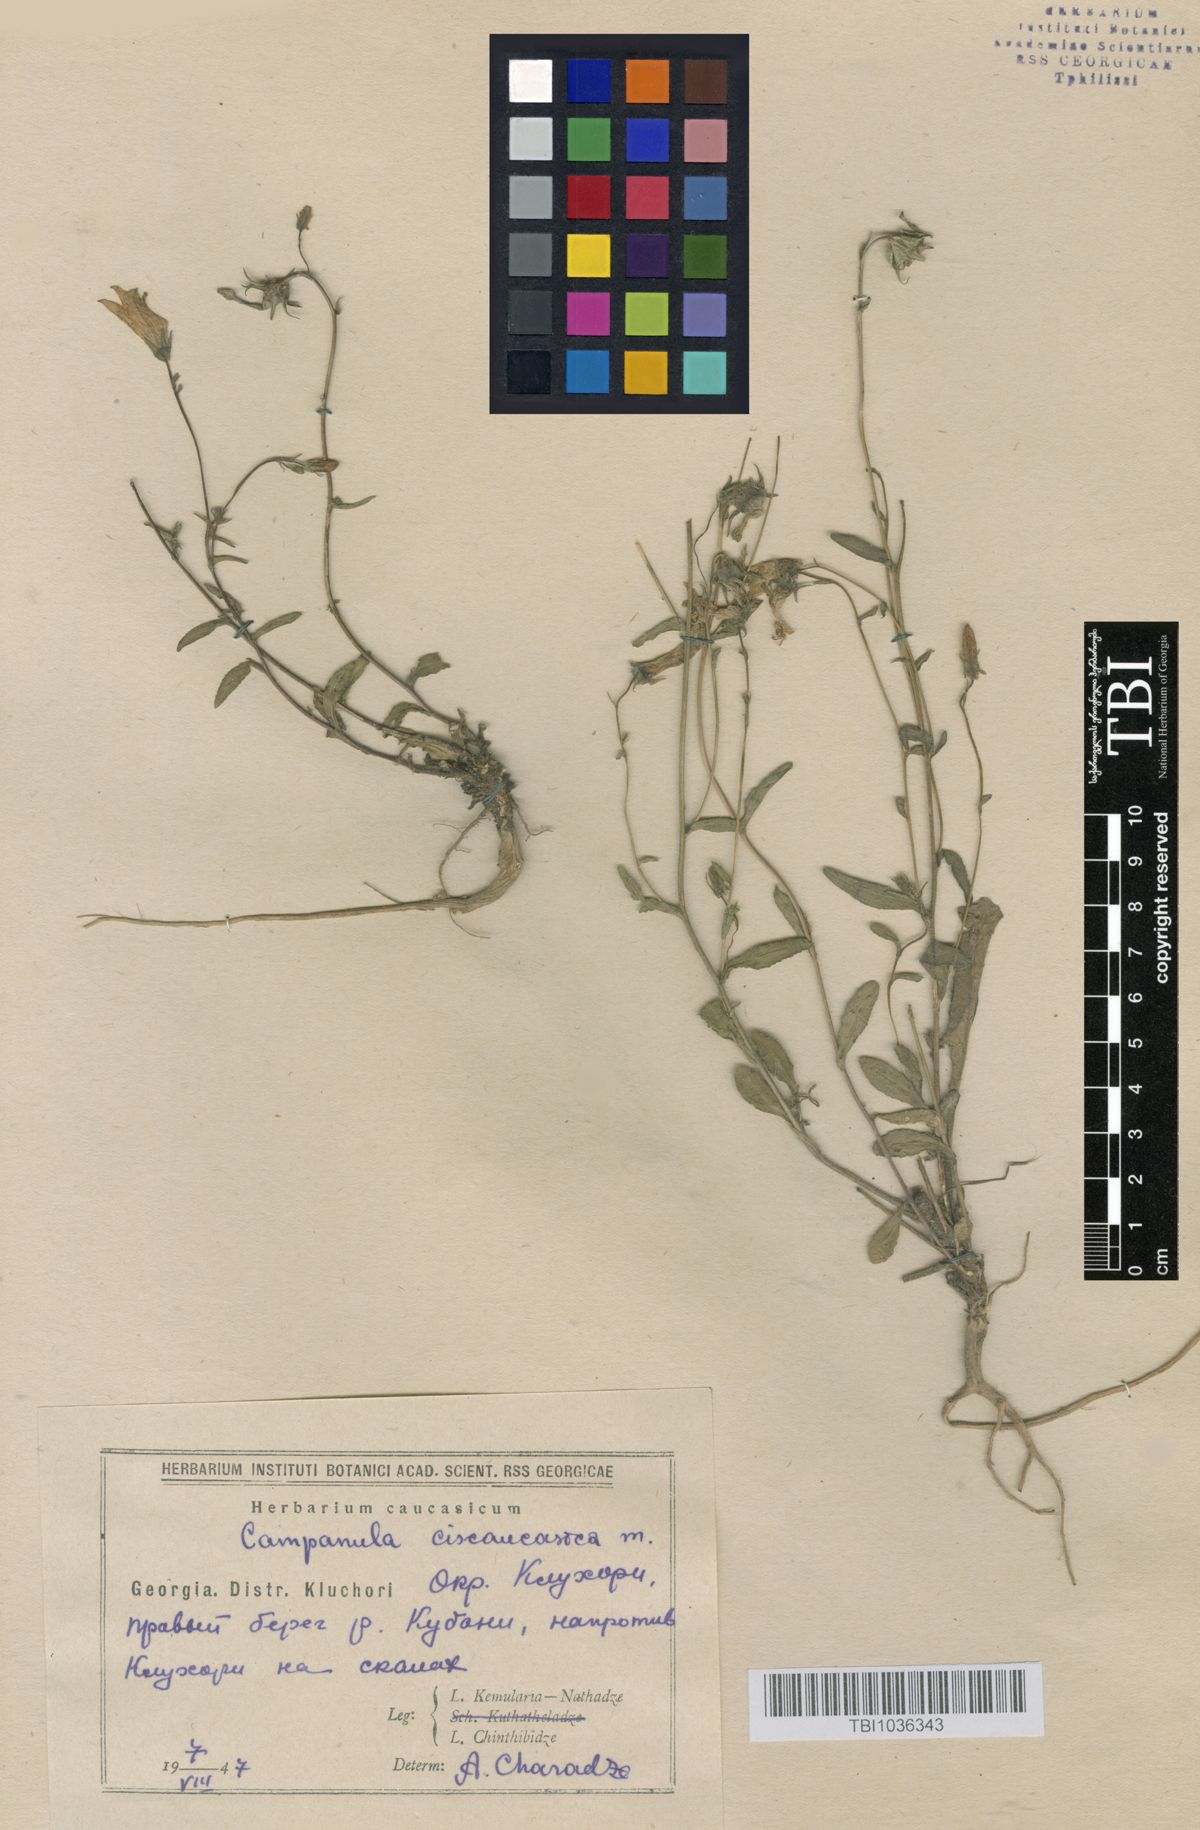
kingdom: Plantae
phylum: Tracheophyta
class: Magnoliopsida
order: Asterales
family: Campanulaceae
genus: Campanula
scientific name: Campanula sibirica
